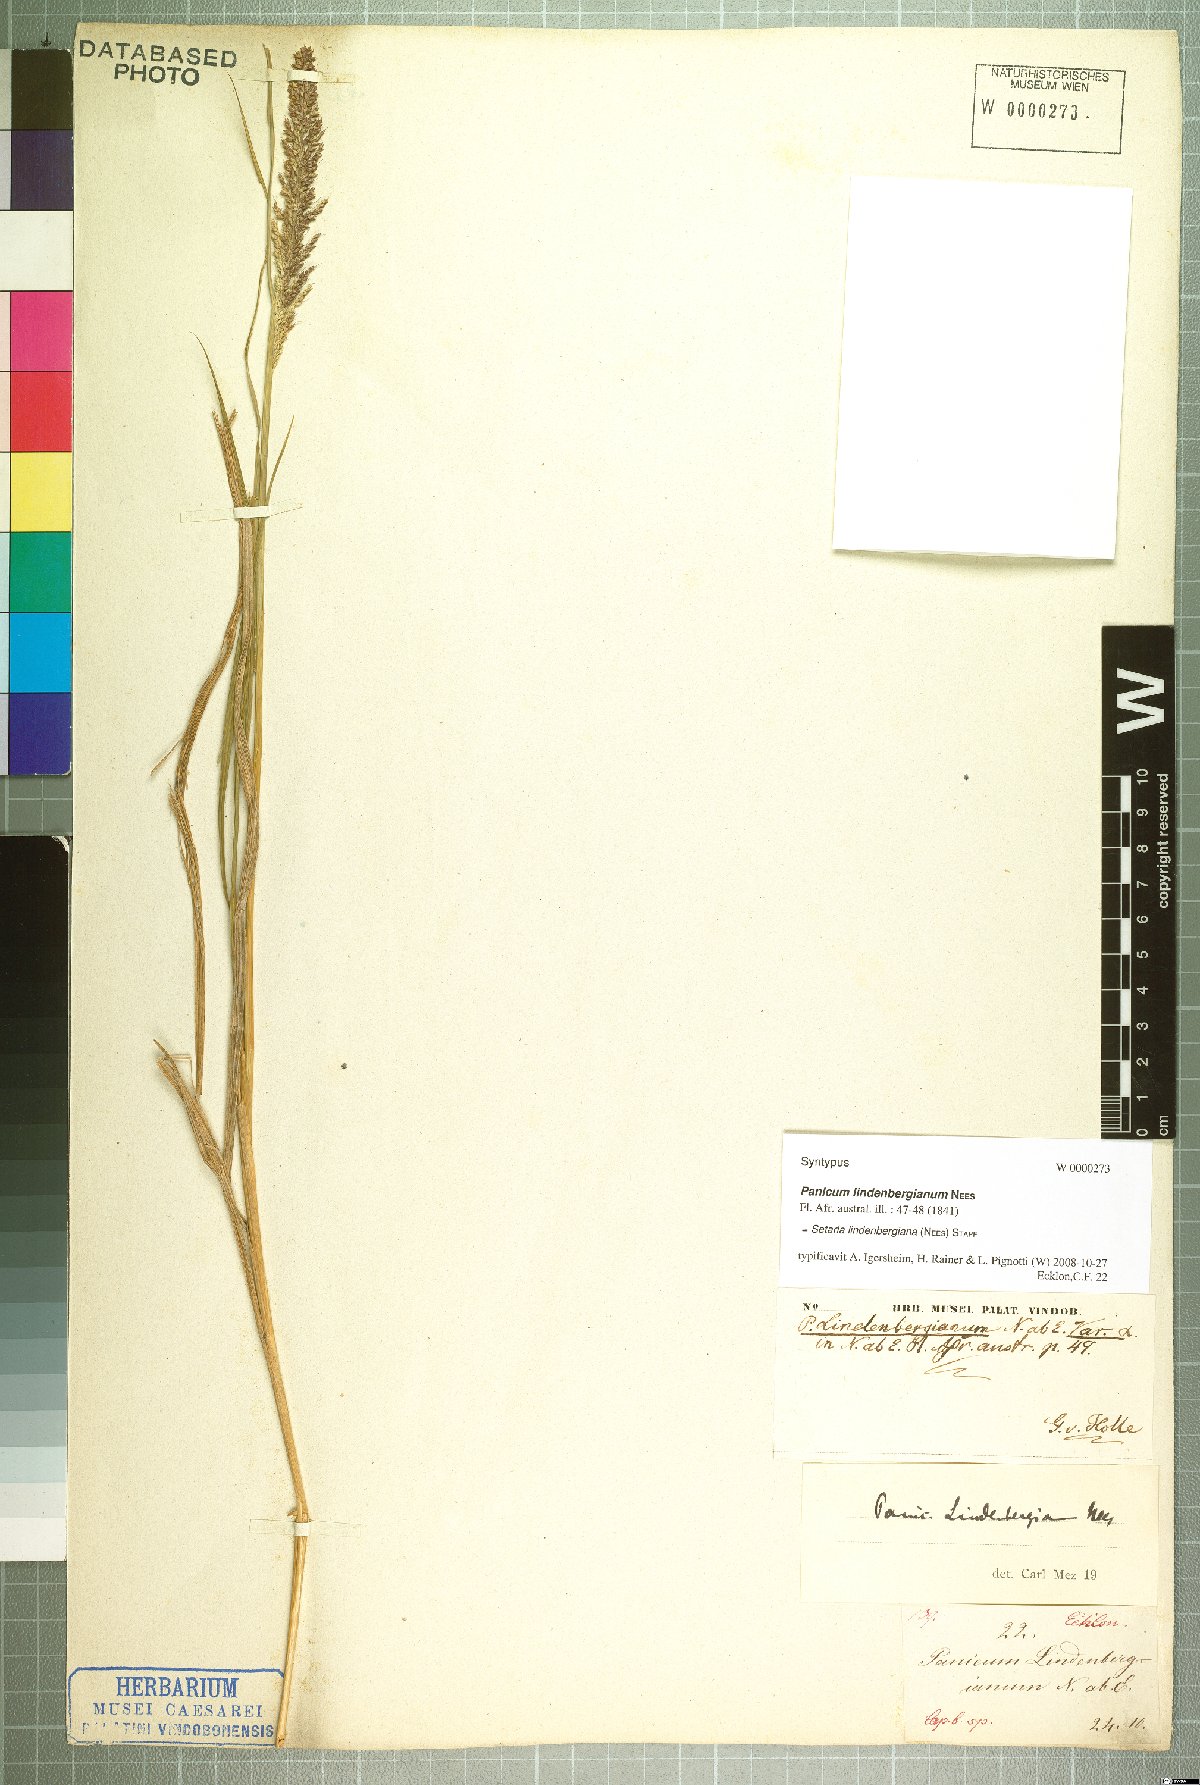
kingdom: Plantae
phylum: Tracheophyta
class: Liliopsida
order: Poales
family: Poaceae
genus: Setaria
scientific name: Setaria lindenbergiana
